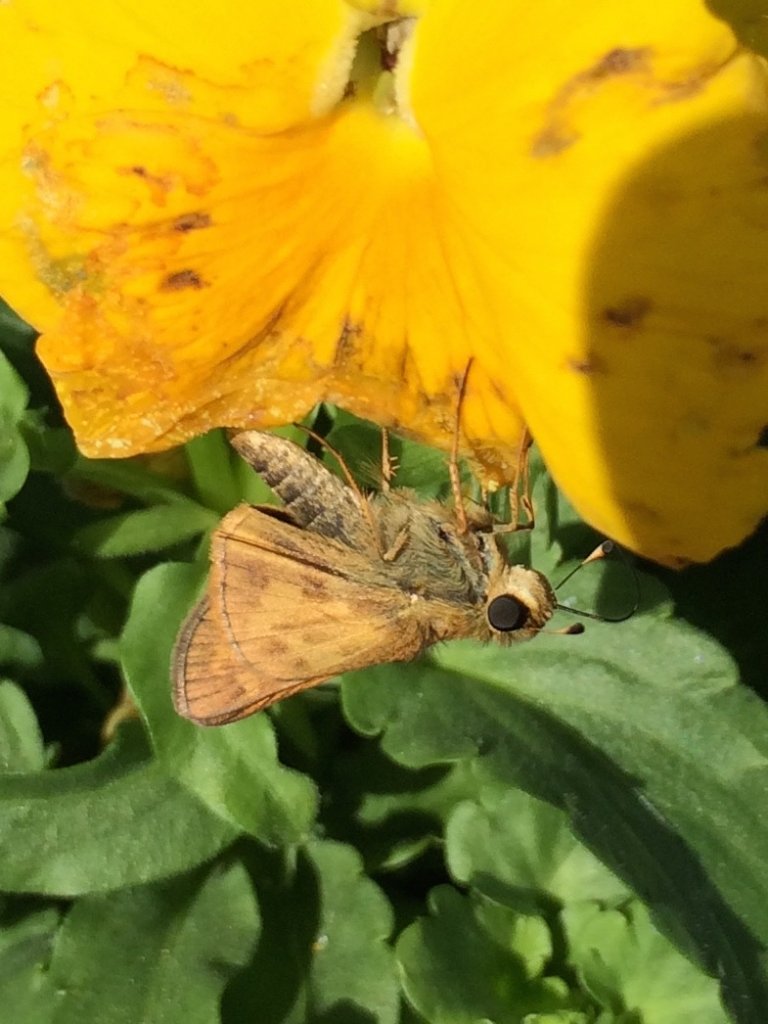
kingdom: Animalia
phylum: Arthropoda
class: Insecta
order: Lepidoptera
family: Hesperiidae
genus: Atalopedes
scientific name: Atalopedes campestris
